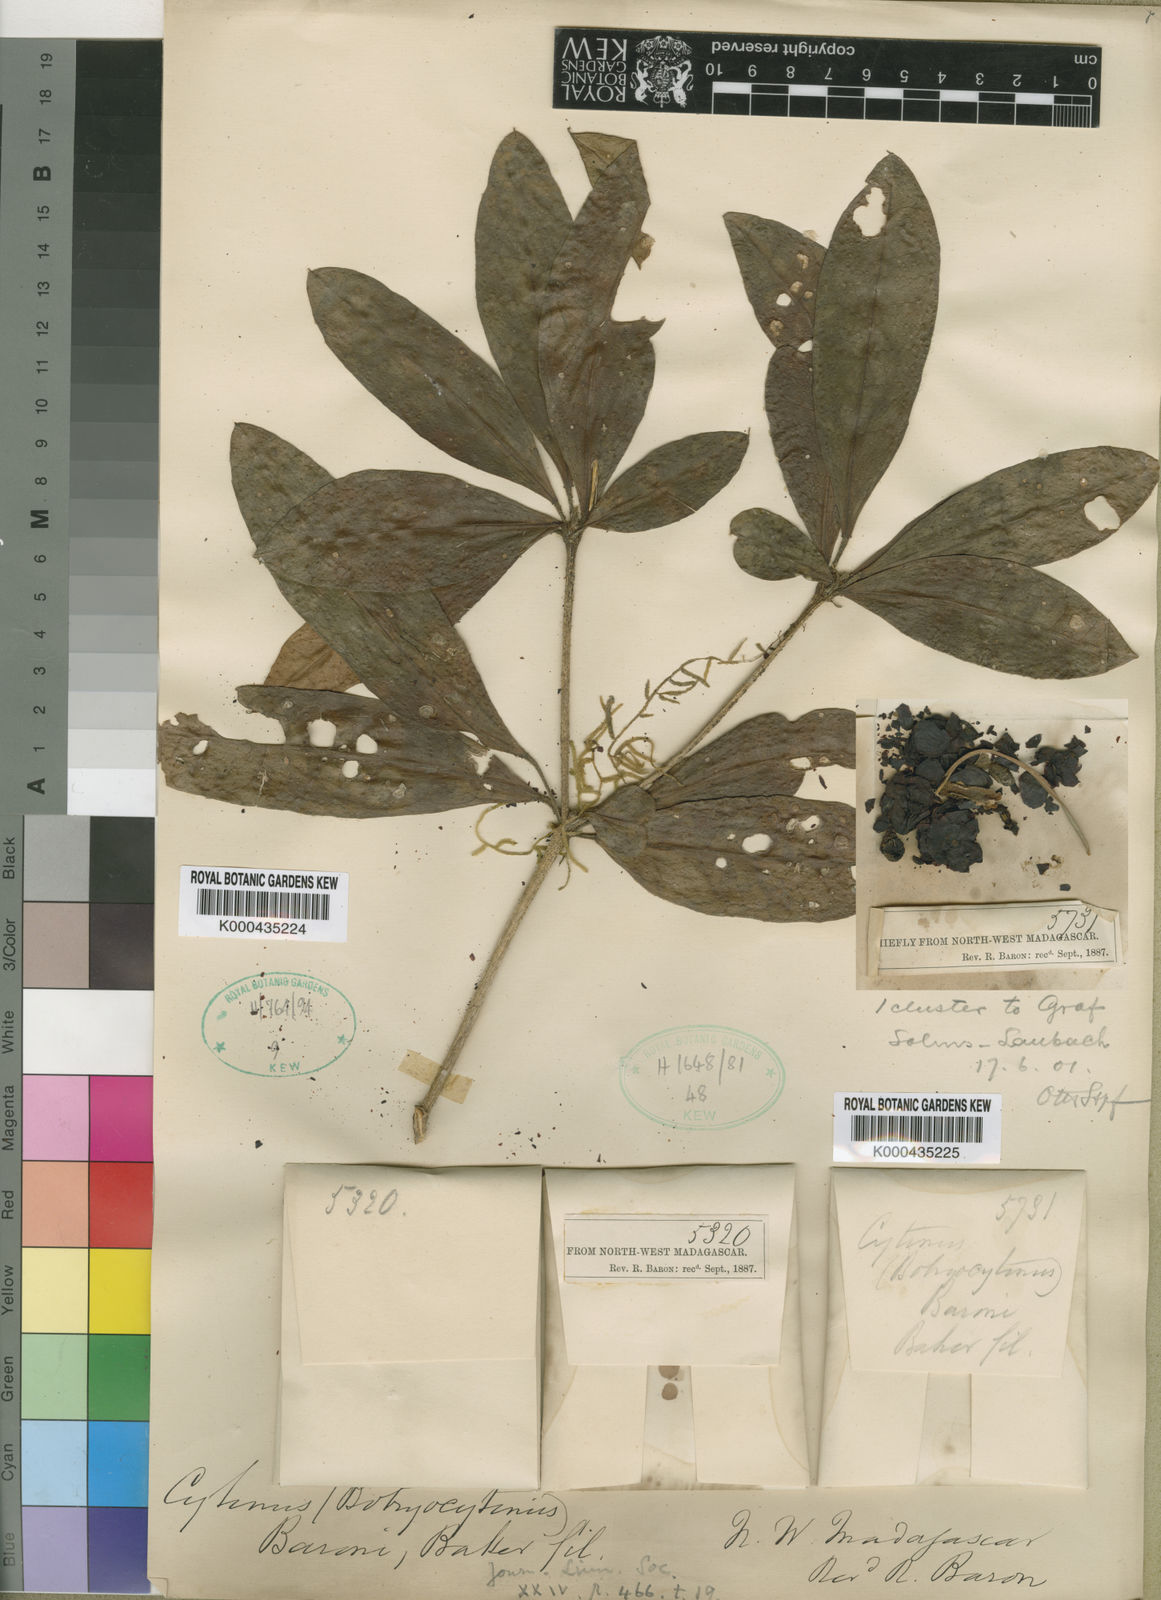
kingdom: Plantae
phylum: Tracheophyta
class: Magnoliopsida
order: Malvales
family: Cytinaceae
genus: Cytinus
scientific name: Cytinus baronii
